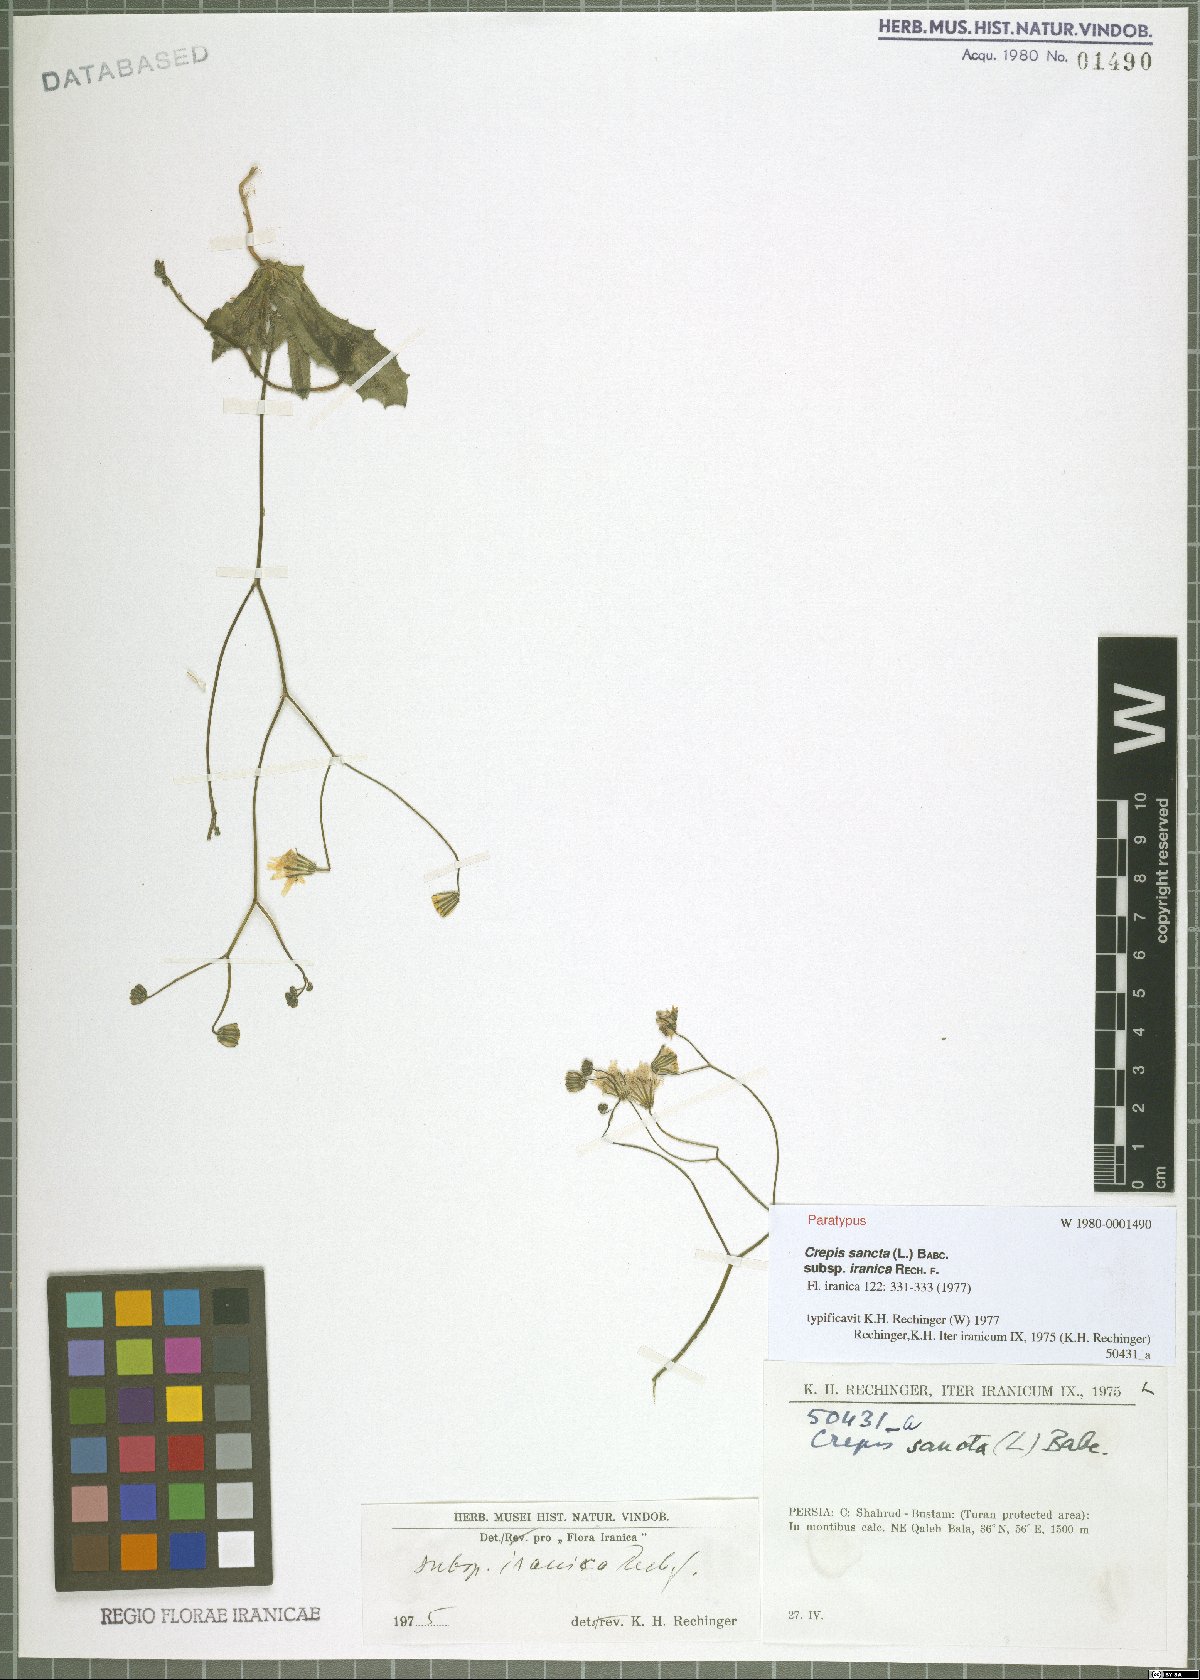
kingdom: Plantae
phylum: Tracheophyta
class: Magnoliopsida
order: Asterales
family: Asteraceae
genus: Crepis
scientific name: Crepis sancta
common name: Hawk's-beard
